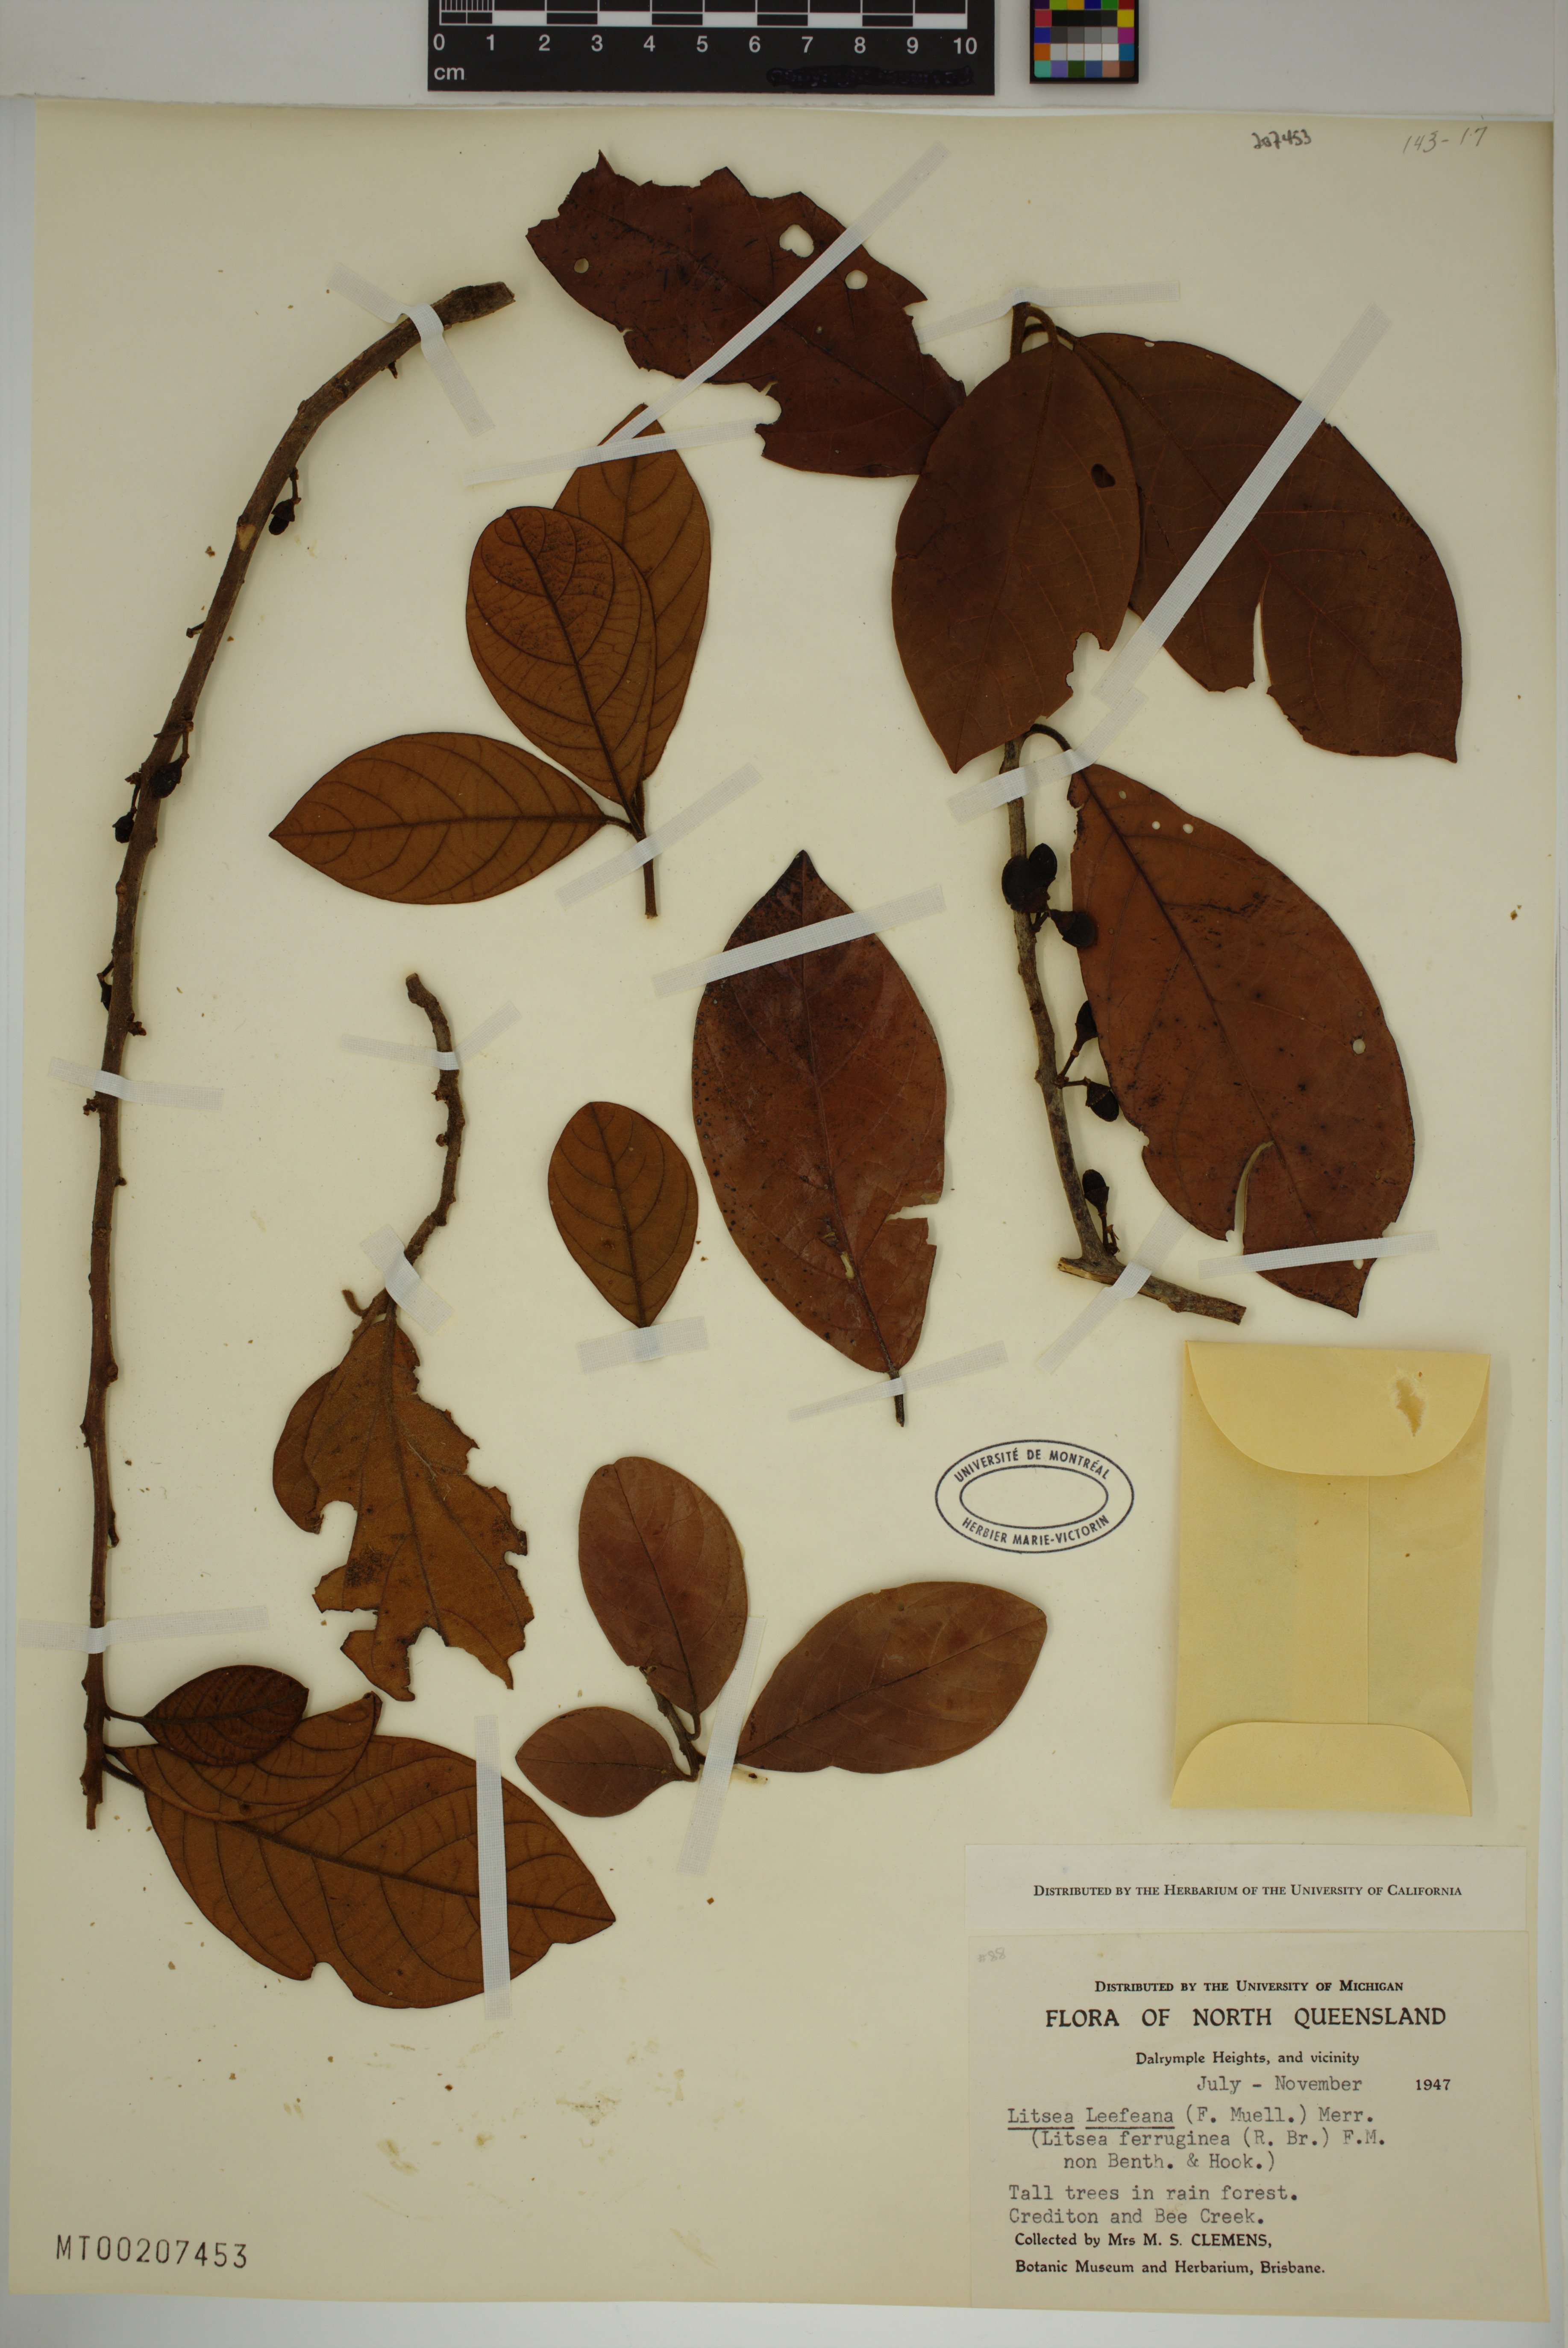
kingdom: Plantae
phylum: Tracheophyta
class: Magnoliopsida
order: Laurales
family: Lauraceae
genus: Litsea
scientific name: Litsea leefeana
